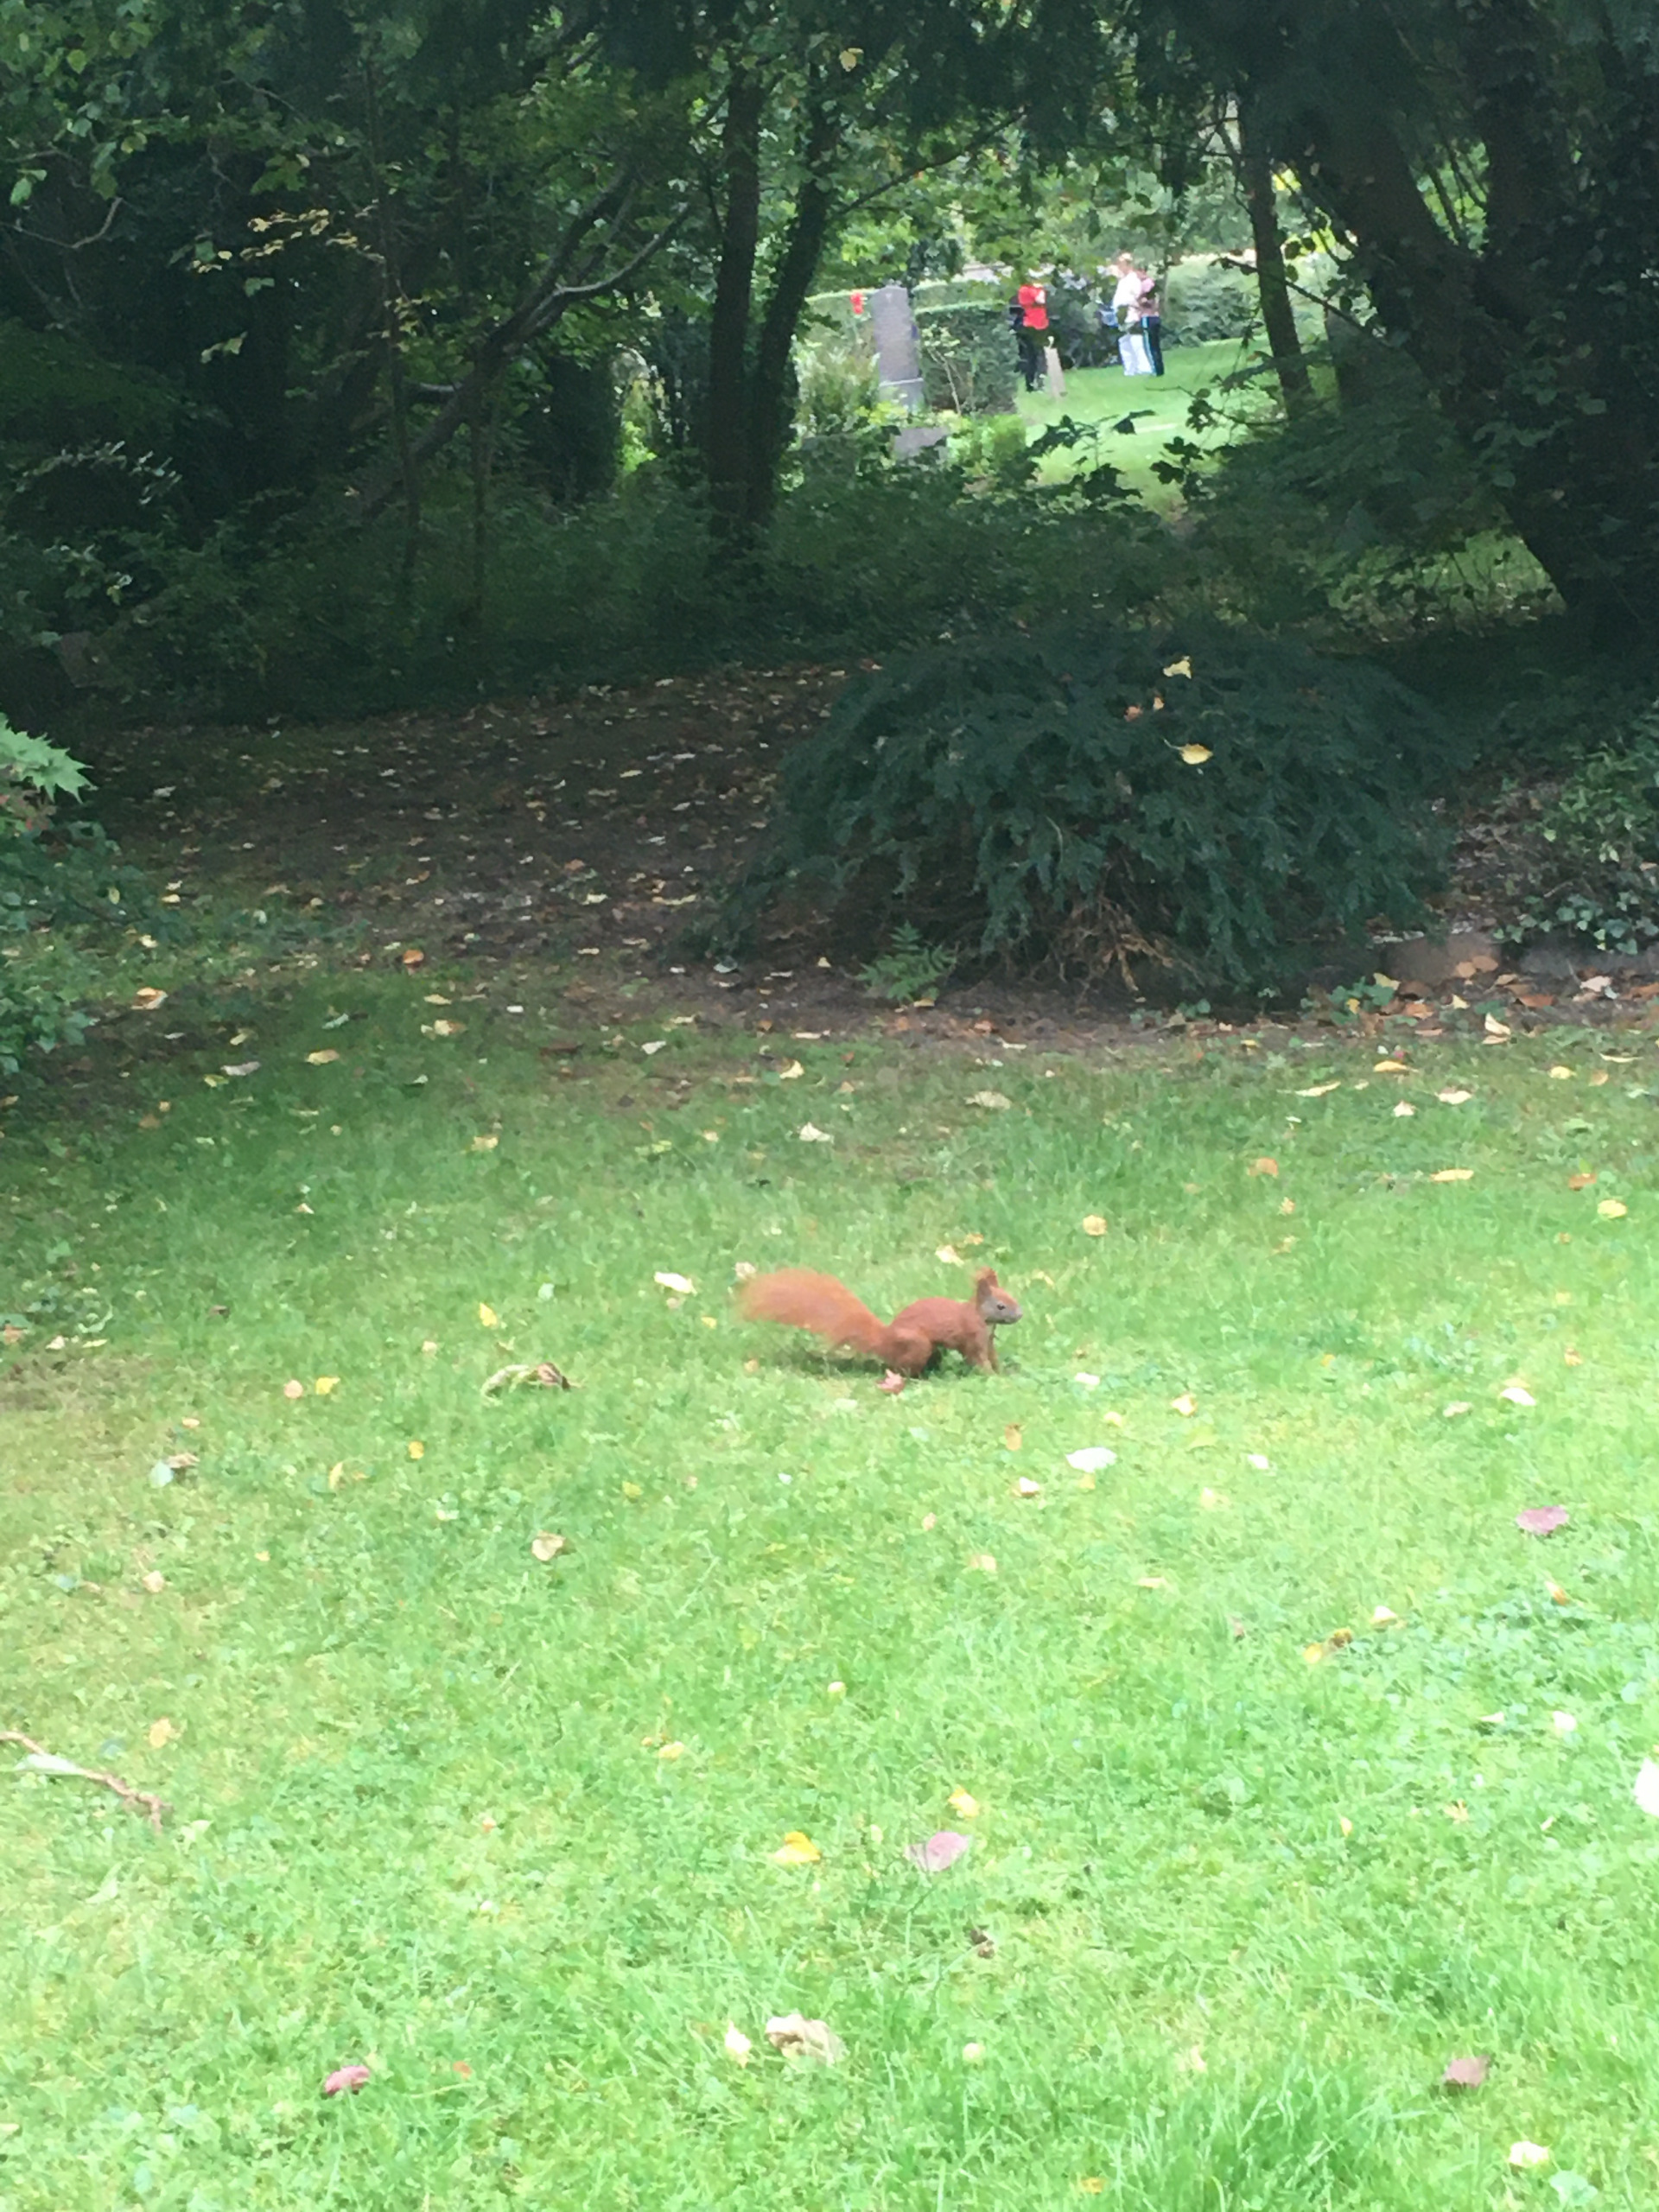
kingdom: Animalia
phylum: Chordata
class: Mammalia
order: Rodentia
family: Sciuridae
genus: Sciurus
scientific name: Sciurus vulgaris
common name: Egern
